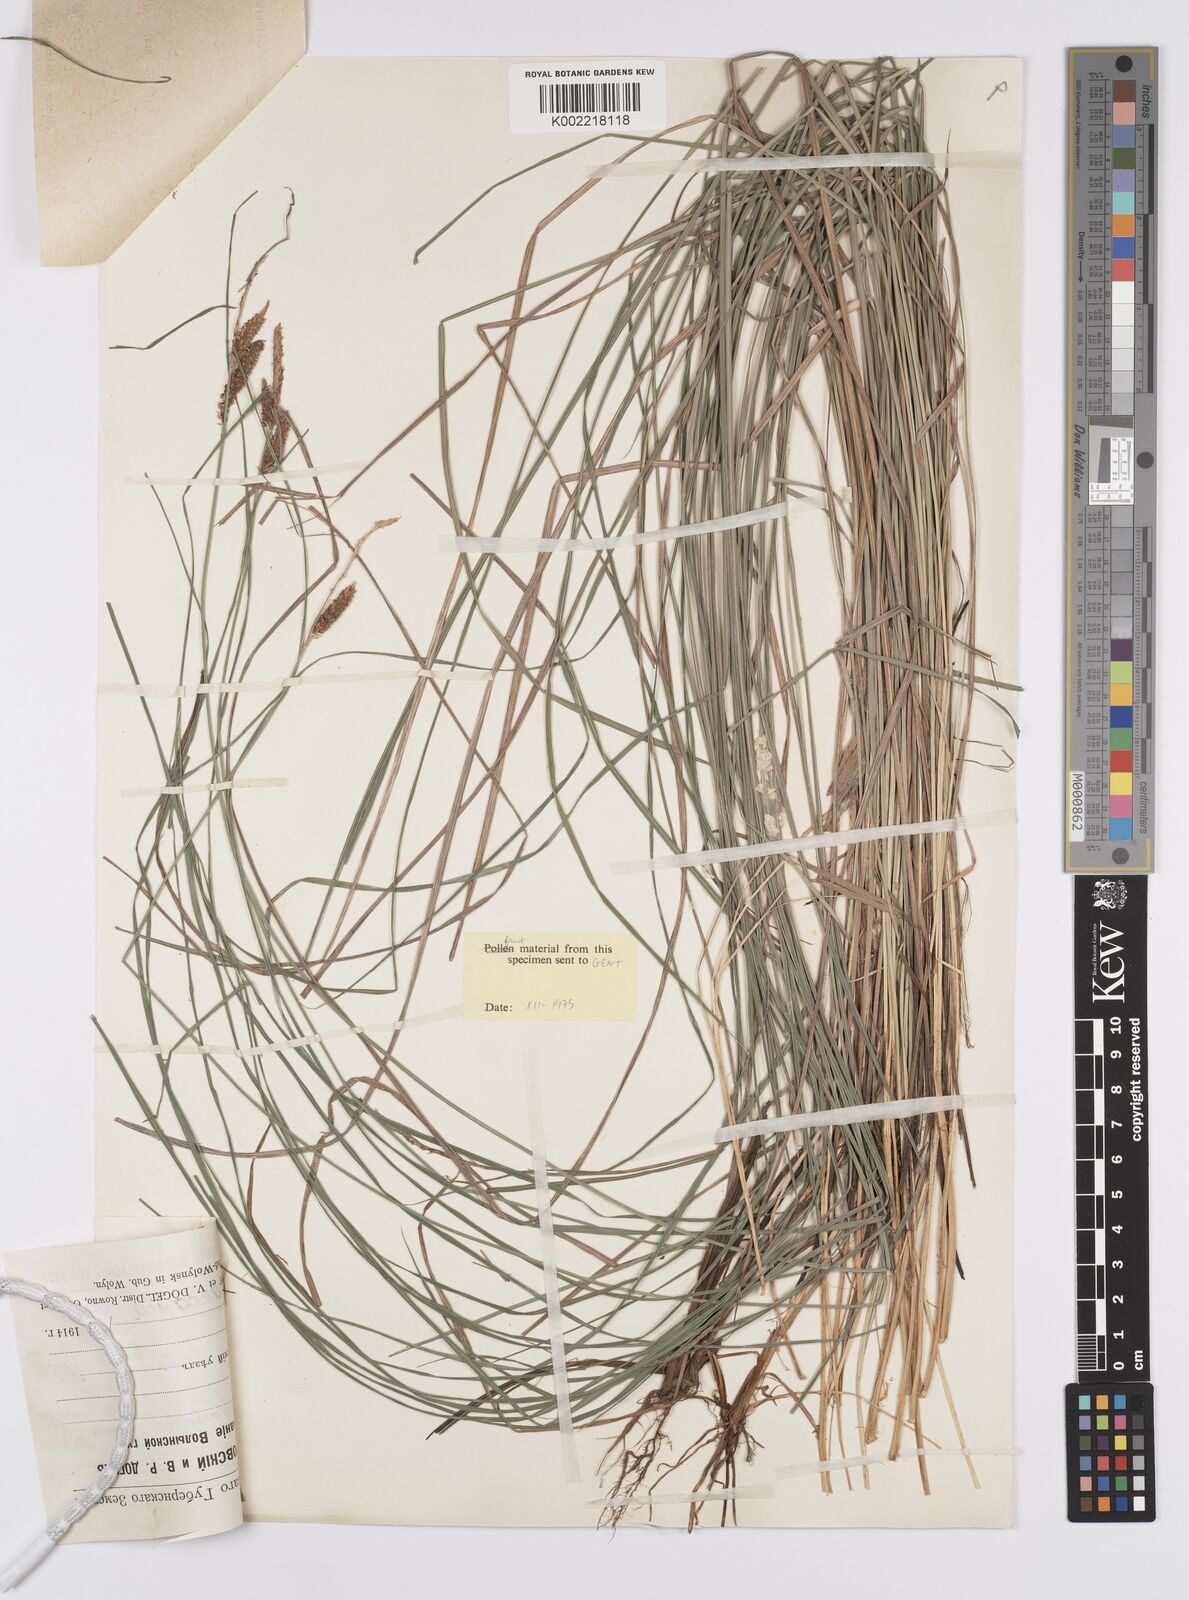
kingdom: Plantae
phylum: Tracheophyta
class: Liliopsida
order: Poales
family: Cyperaceae
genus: Carex
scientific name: Carex orbicularis
